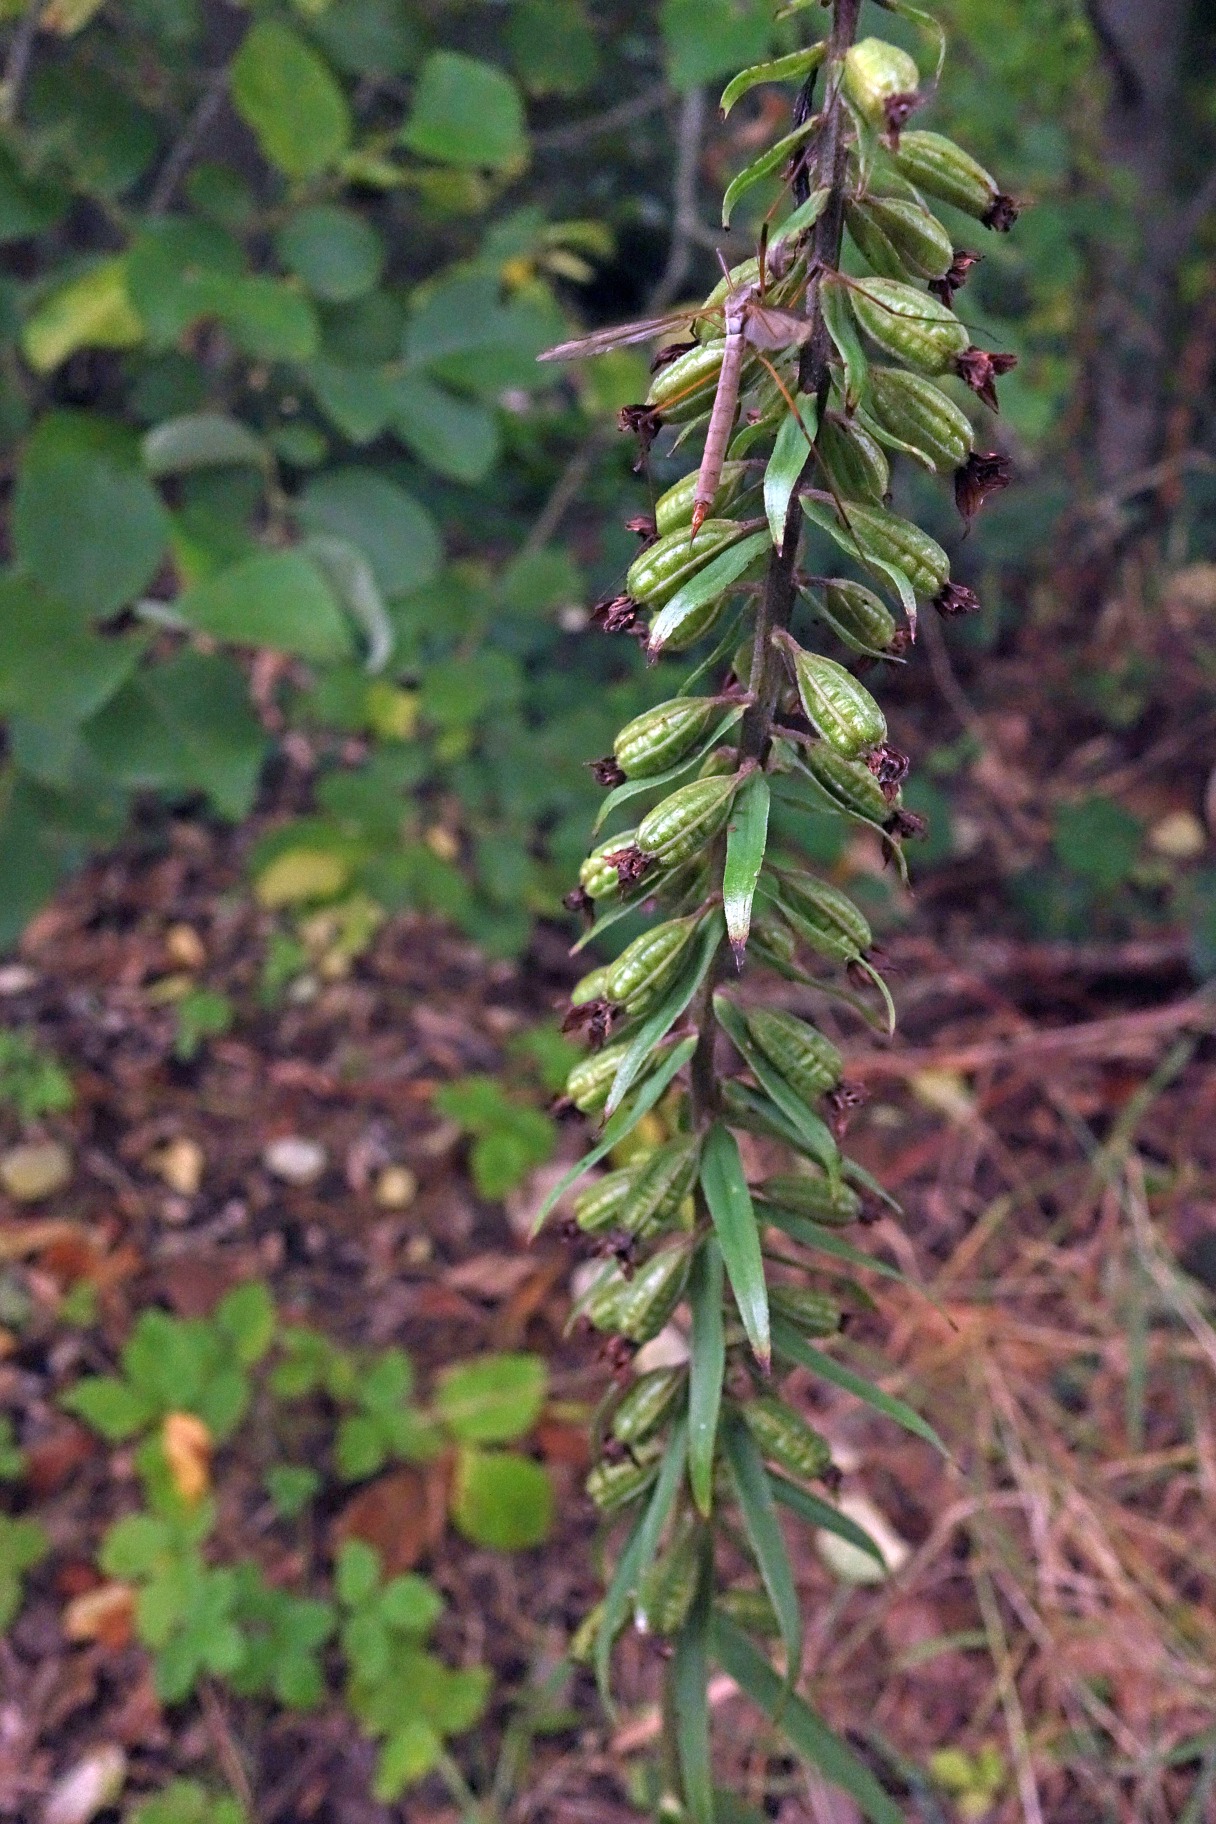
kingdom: Plantae
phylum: Tracheophyta
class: Liliopsida
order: Asparagales
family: Orchidaceae
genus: Epipactis
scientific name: Epipactis helleborine
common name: Skov-hullæbe
